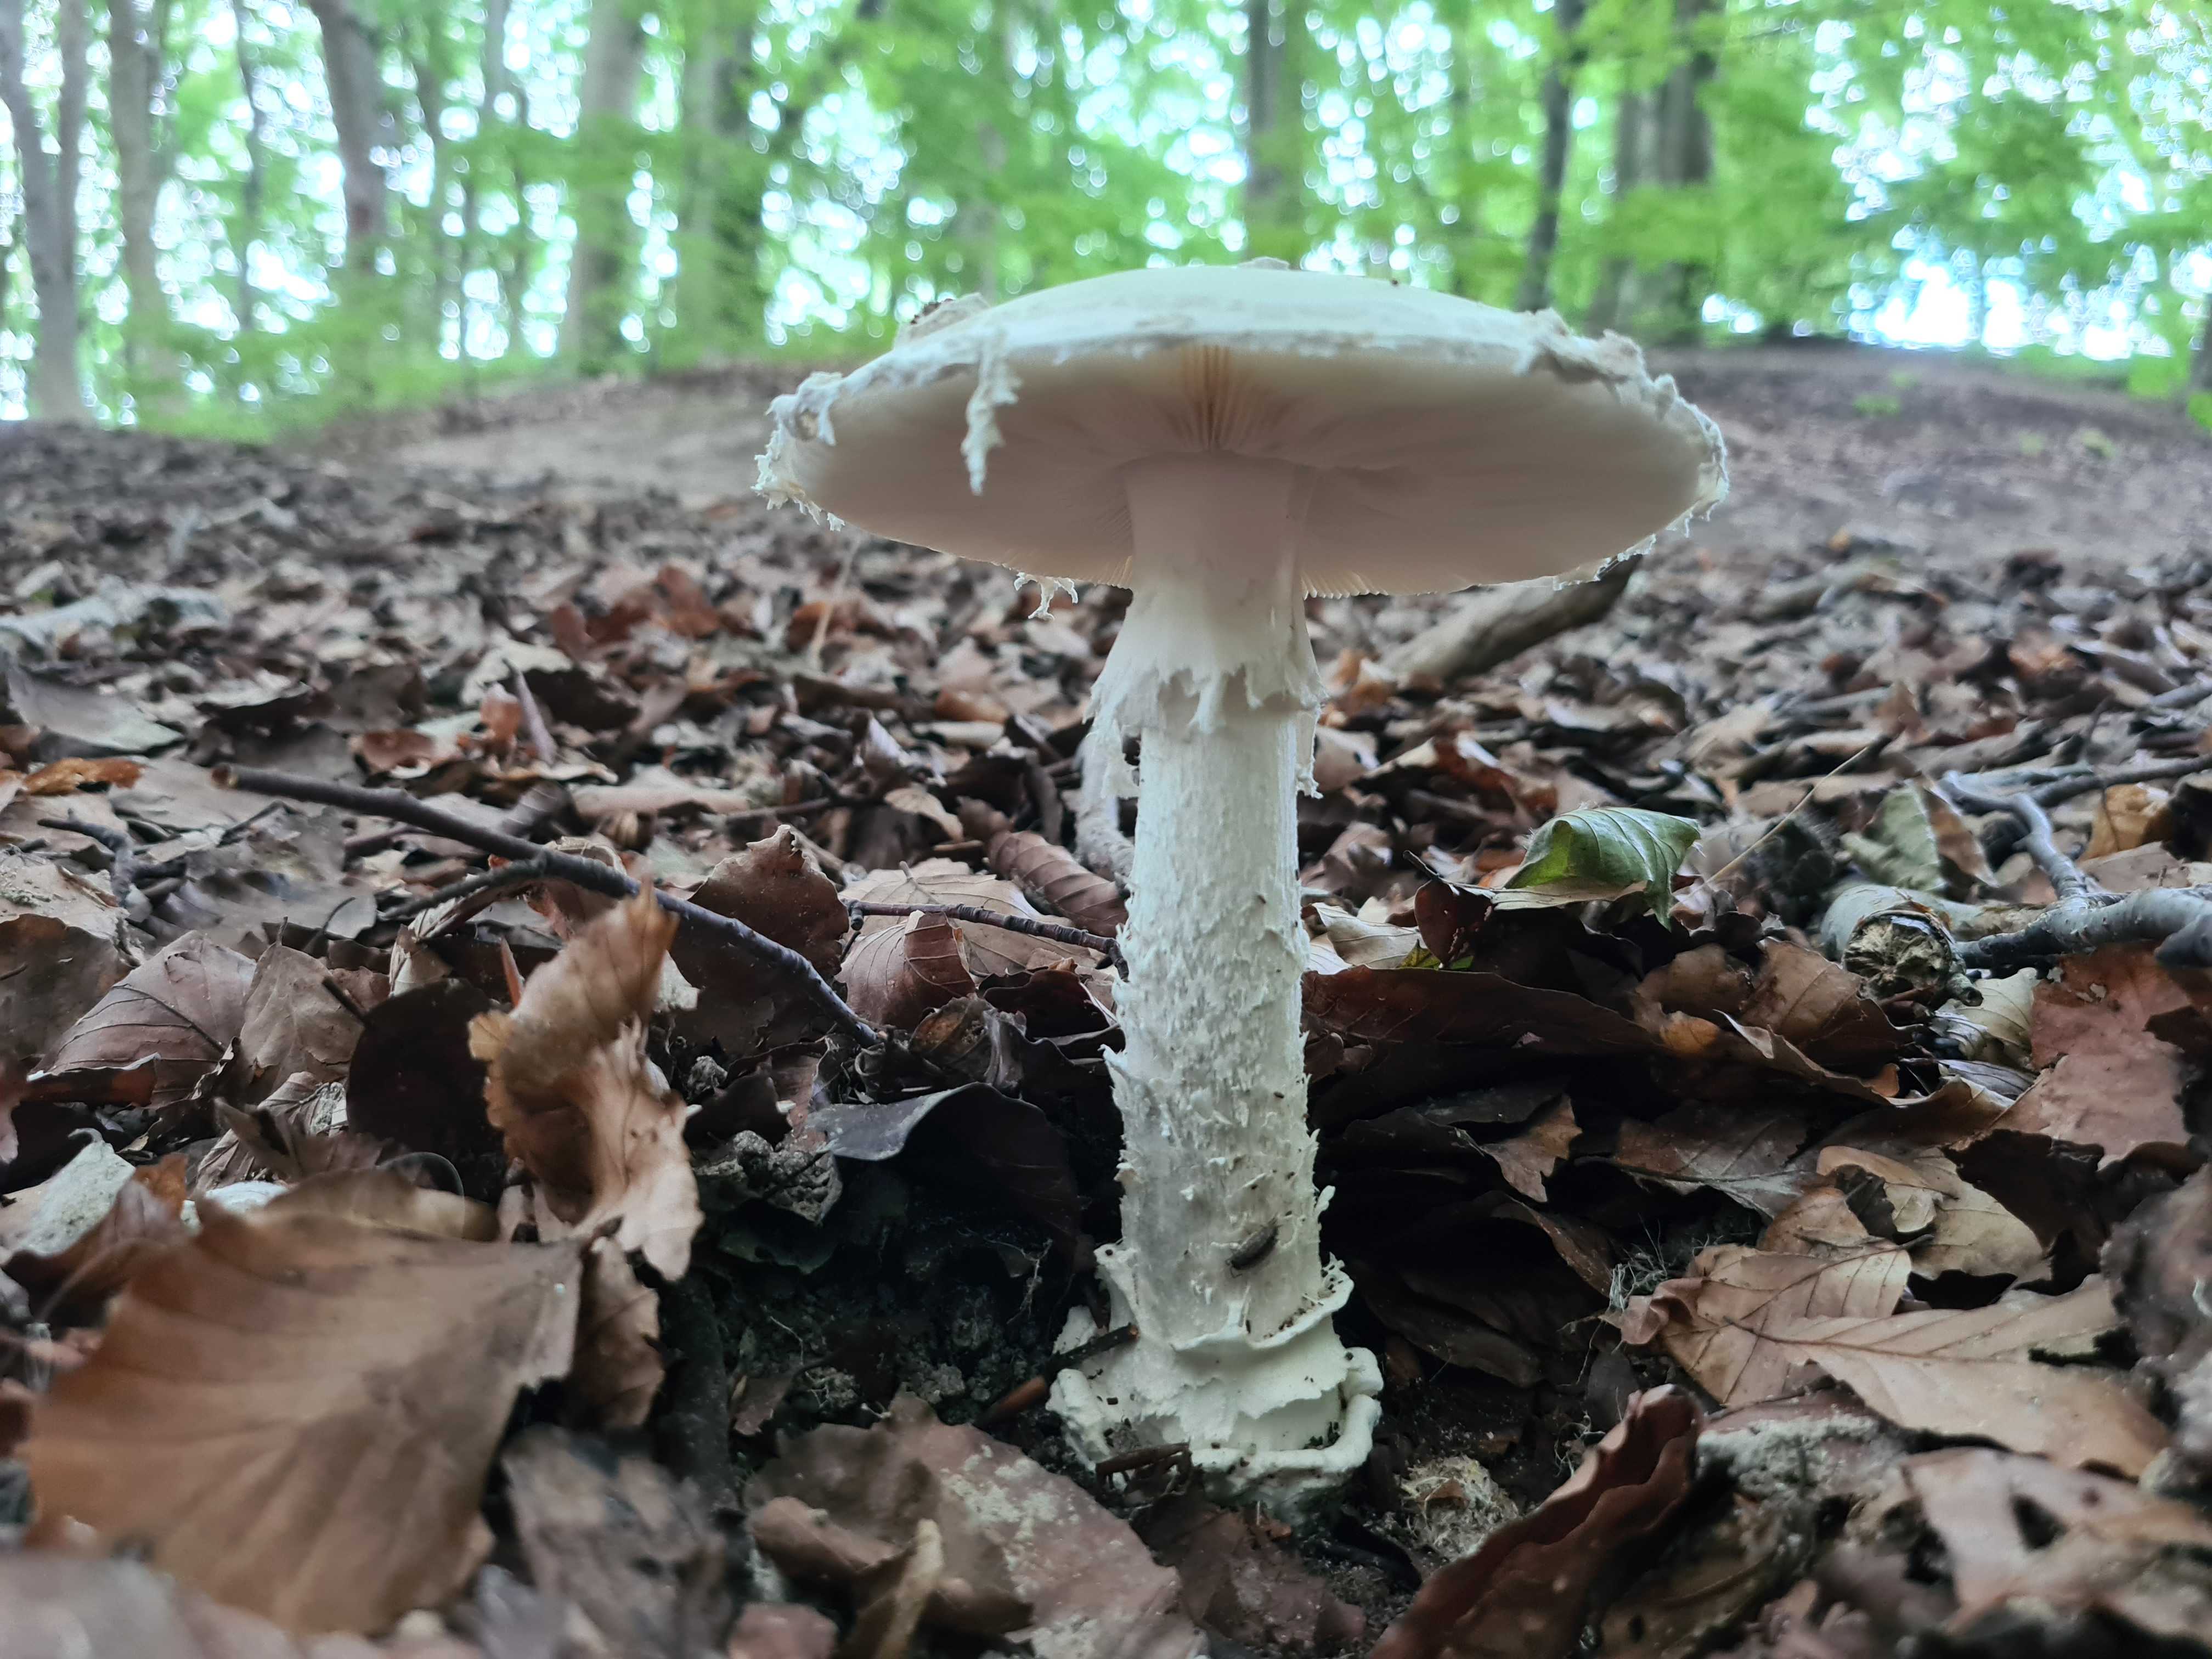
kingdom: Fungi
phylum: Basidiomycota
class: Agaricomycetes
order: Agaricales
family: Amanitaceae
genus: Amanita
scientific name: Amanita
